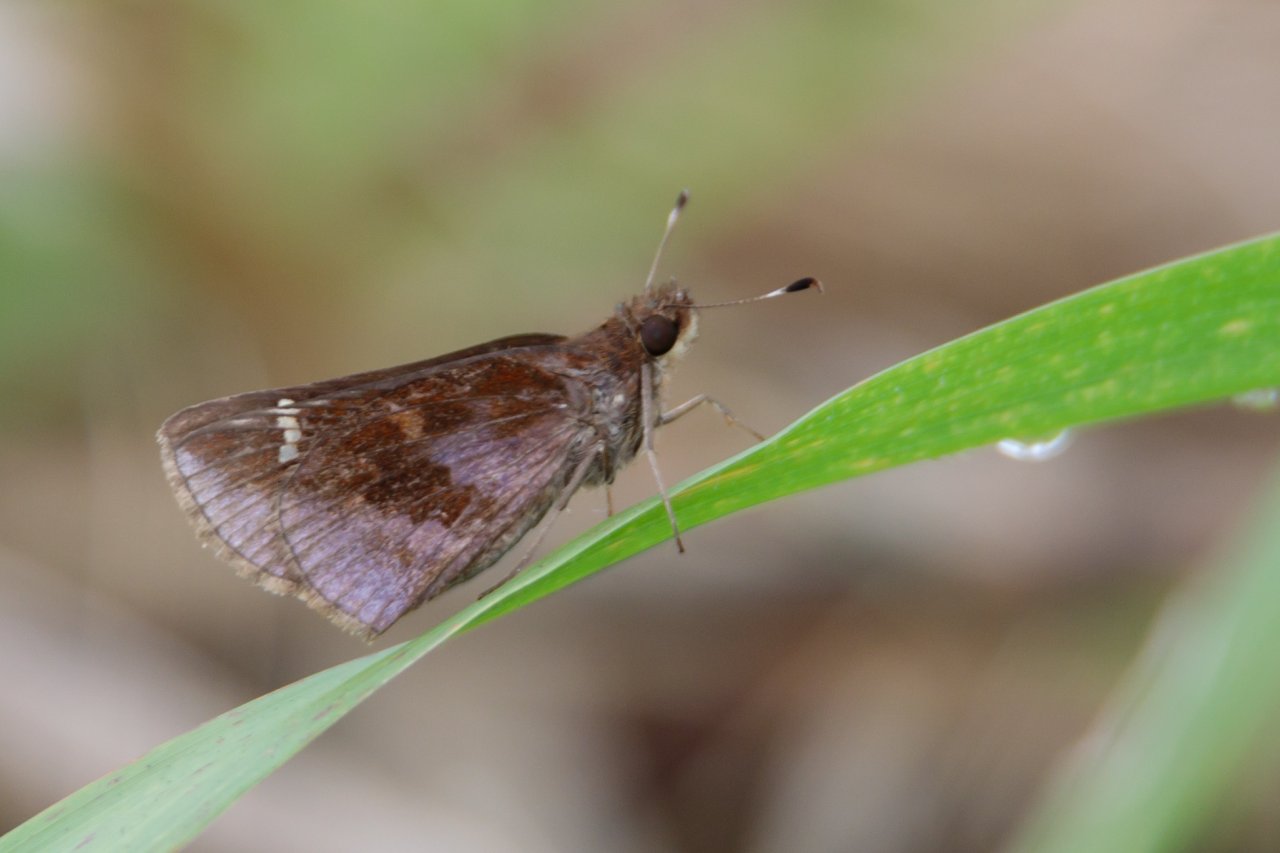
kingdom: Animalia
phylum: Arthropoda
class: Insecta
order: Lepidoptera
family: Hesperiidae
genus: Lerema
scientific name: Lerema accius
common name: Clouded Skipper
